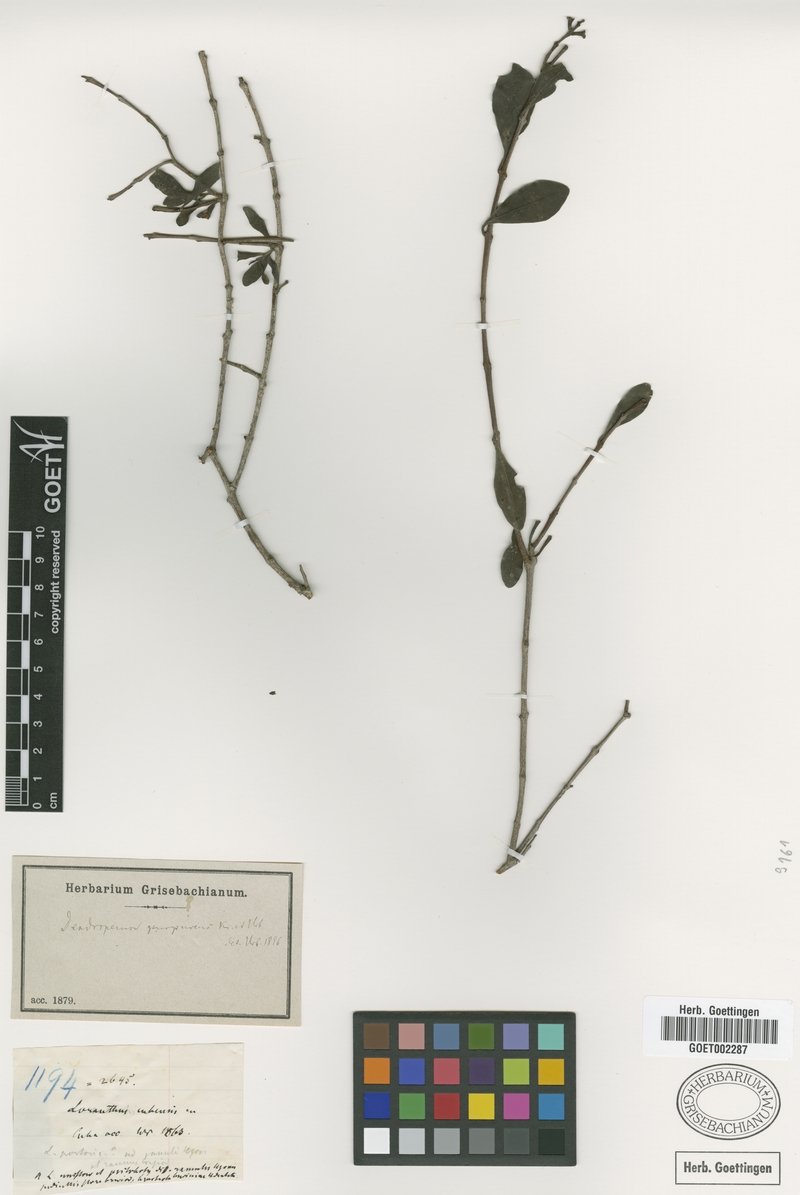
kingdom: Plantae
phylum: Tracheophyta
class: Magnoliopsida
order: Santalales
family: Loranthaceae
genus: Dendropemon
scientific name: Dendropemon purpureus
